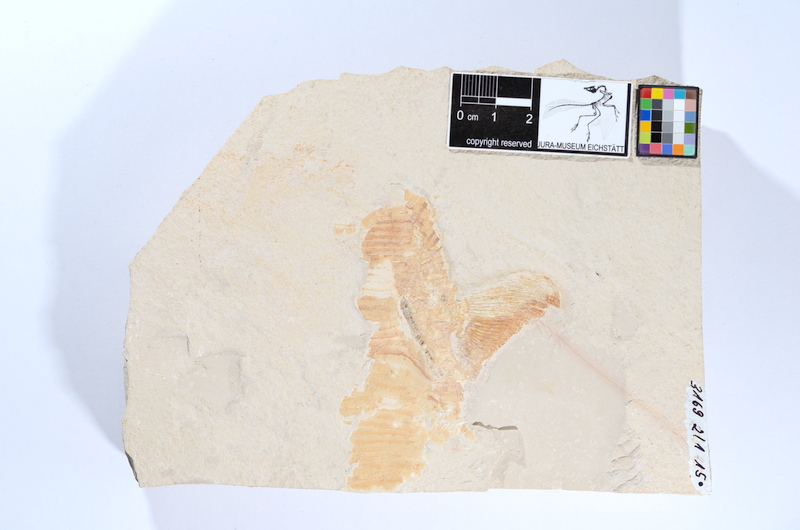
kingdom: Animalia
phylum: Chordata
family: Pachycormidae
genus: Sauropsis
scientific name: Sauropsis
